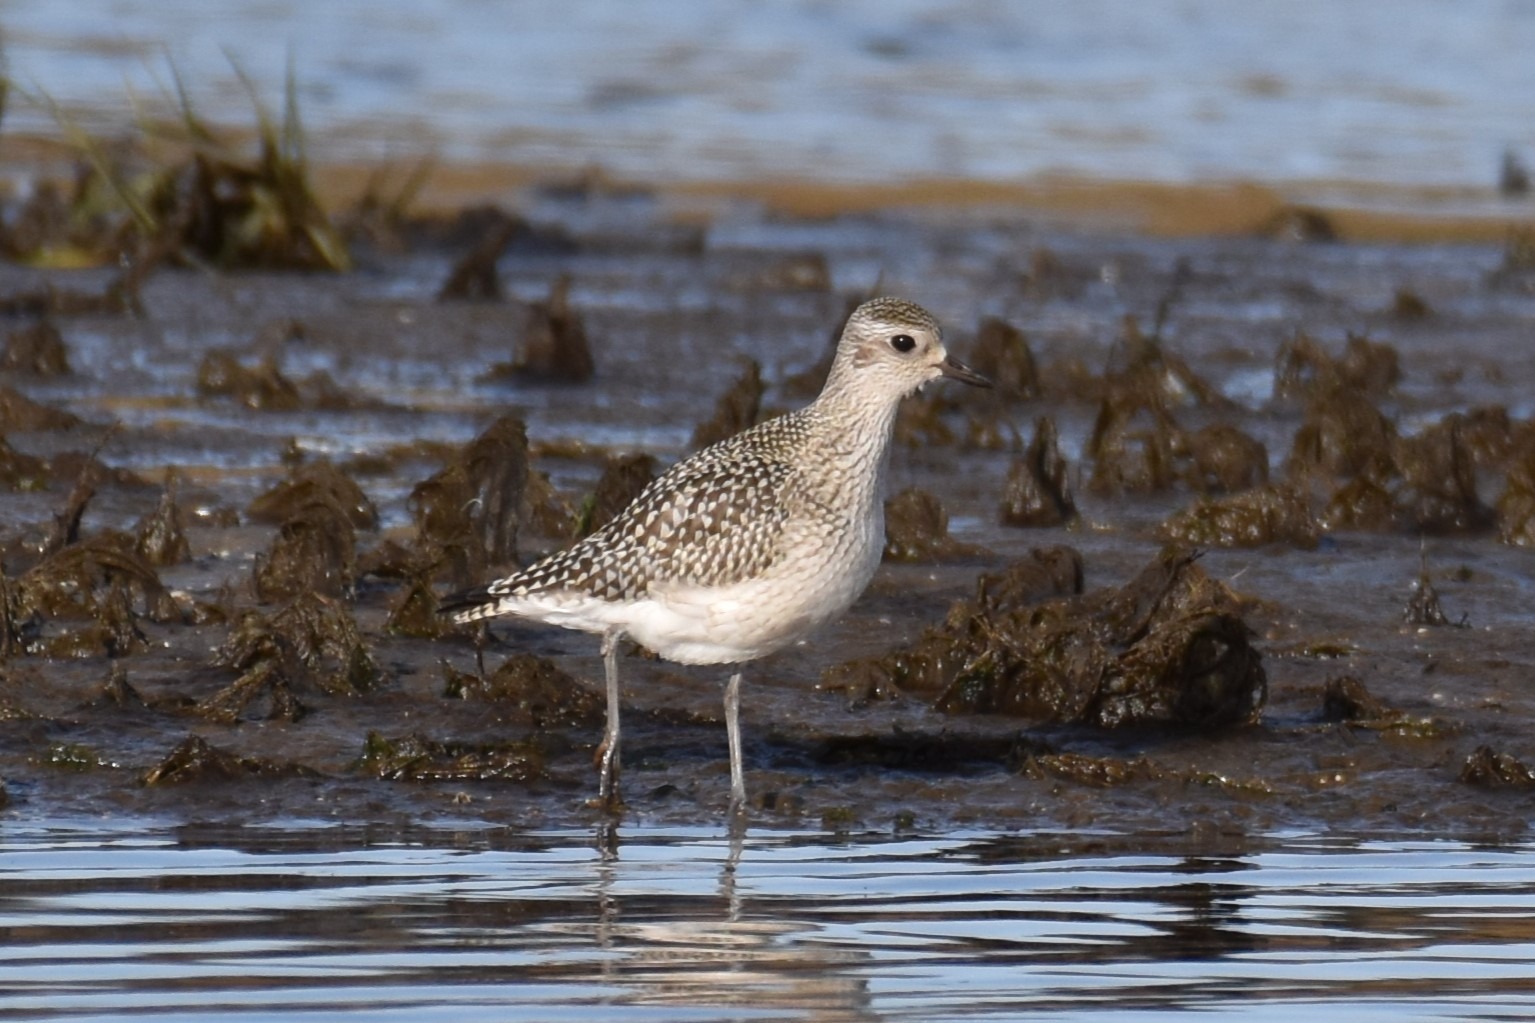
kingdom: Animalia
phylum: Chordata
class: Aves
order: Charadriiformes
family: Charadriidae
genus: Pluvialis
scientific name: Pluvialis squatarola
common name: Strandhjejle
